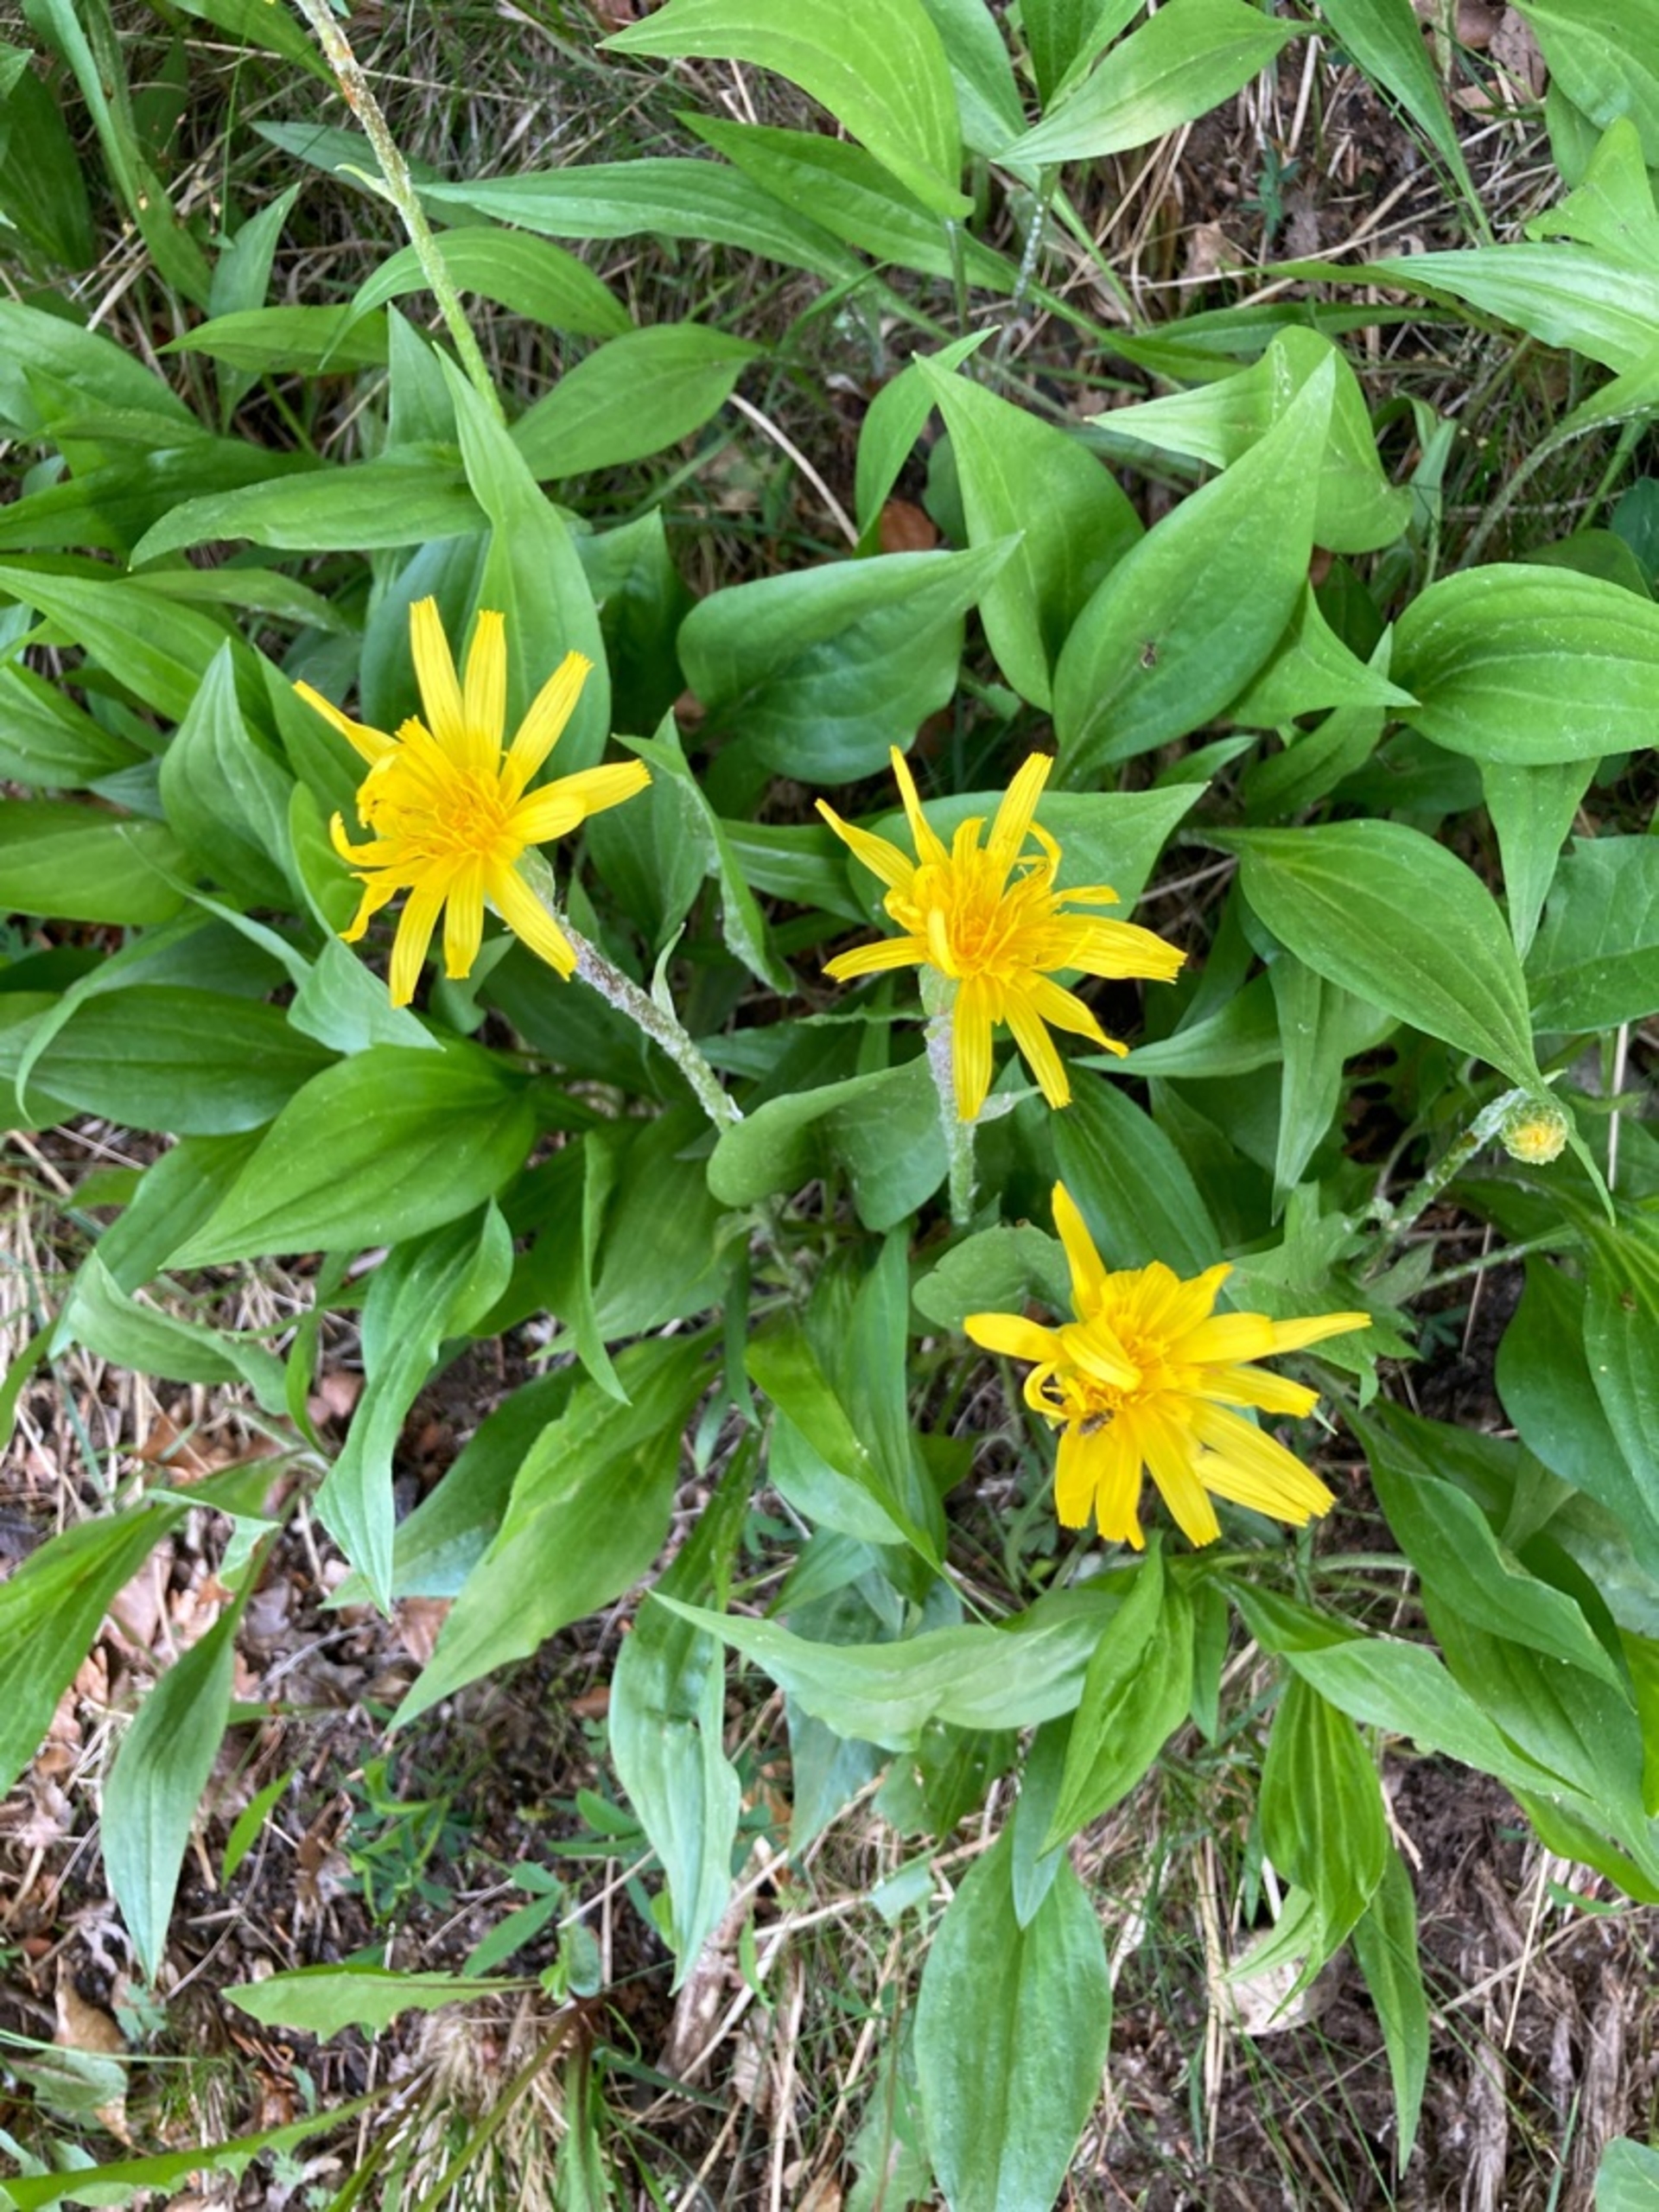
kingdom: Plantae
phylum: Tracheophyta
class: Magnoliopsida
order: Asterales
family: Asteraceae
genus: Scorzonera
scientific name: Scorzonera humilis
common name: Lav skorsoner
